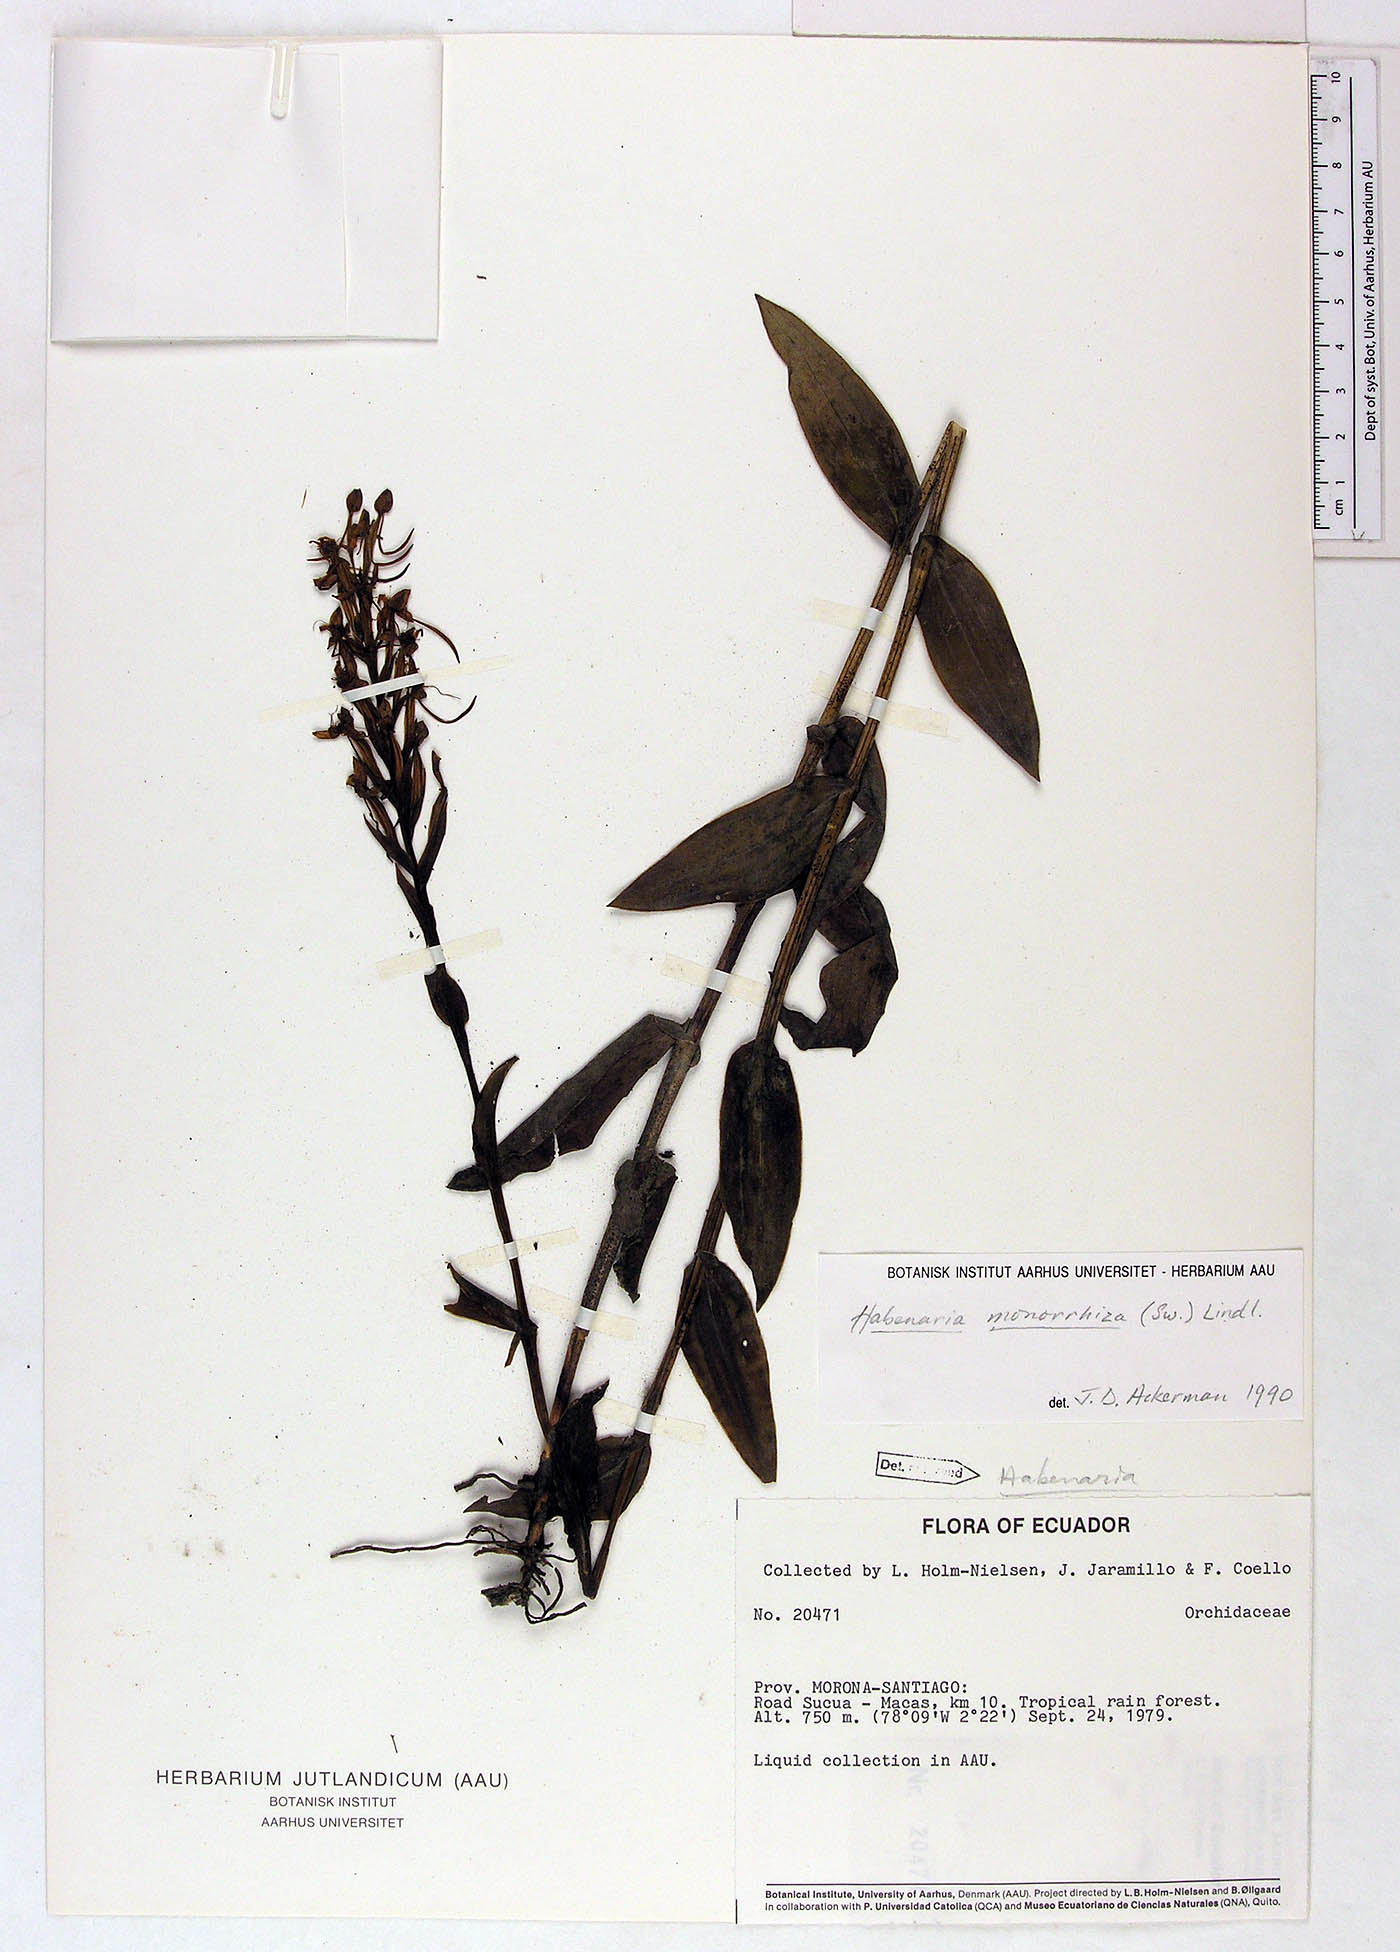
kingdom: Plantae
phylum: Tracheophyta
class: Liliopsida
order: Asparagales
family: Orchidaceae
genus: Habenaria
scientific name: Habenaria monorrhiza
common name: Tropical bog orchid
